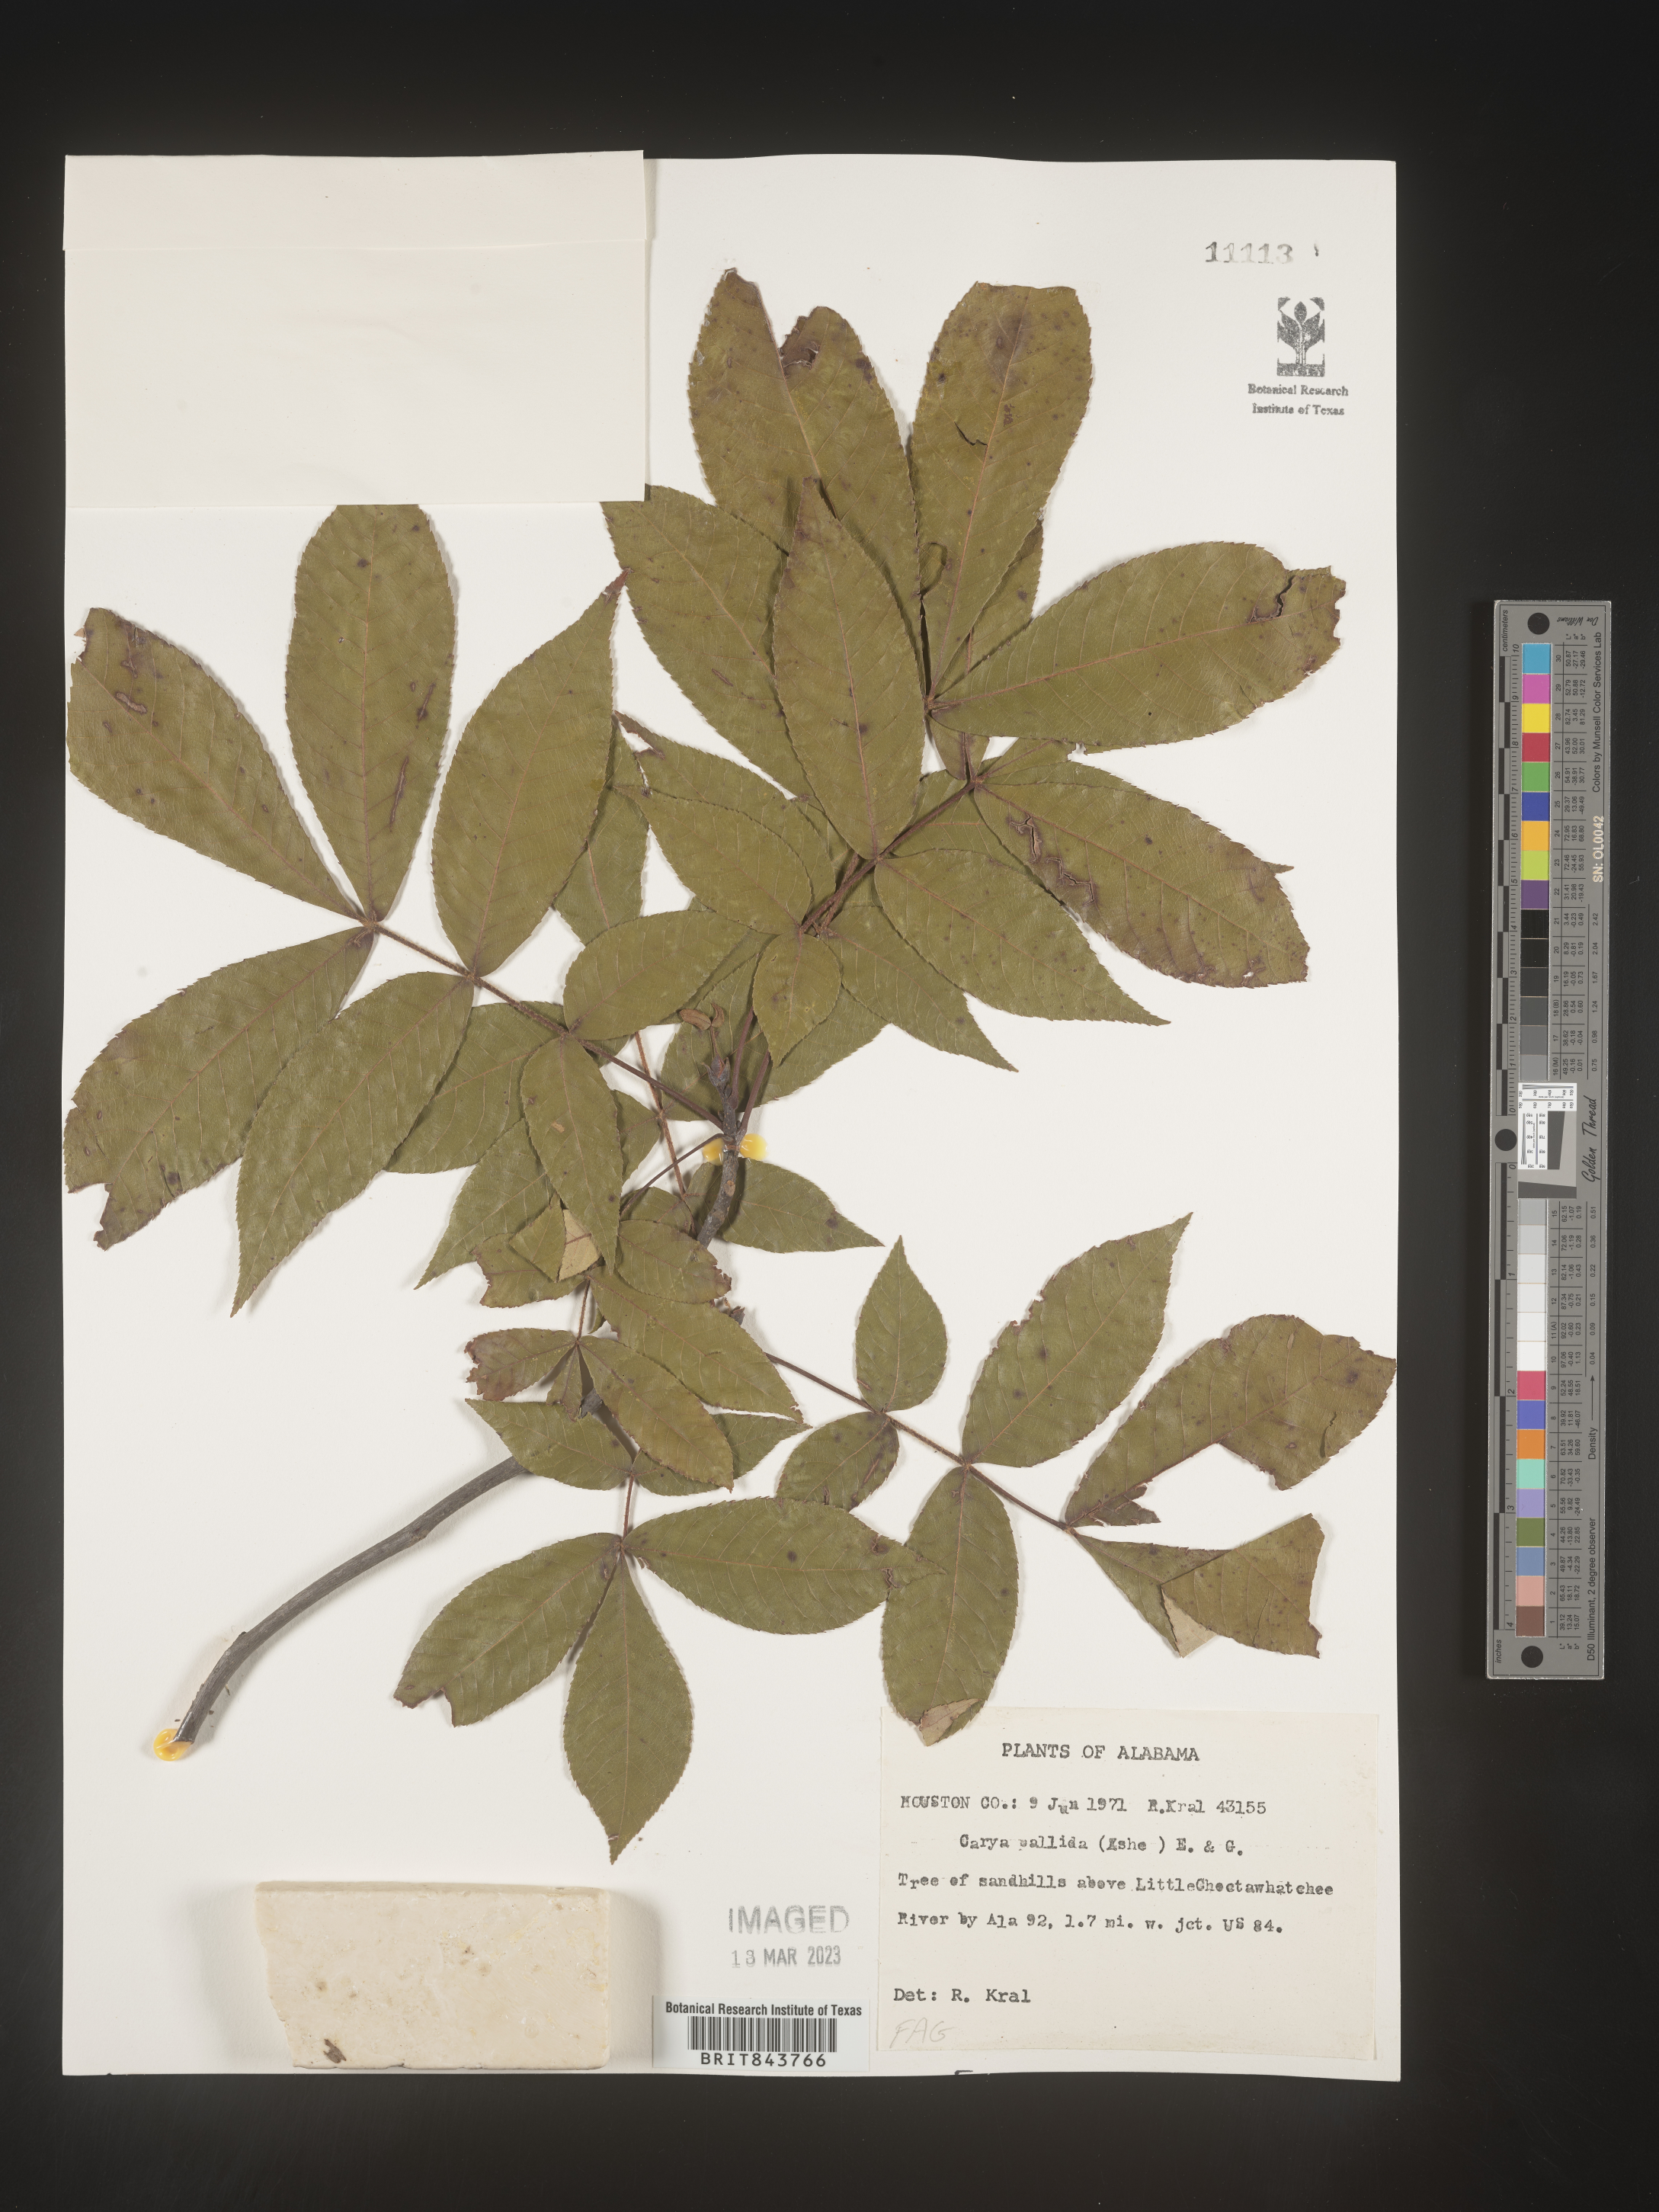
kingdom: Plantae
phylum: Tracheophyta
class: Magnoliopsida
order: Fagales
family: Juglandaceae
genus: Carya
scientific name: Carya pallida
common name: Sand hickory
